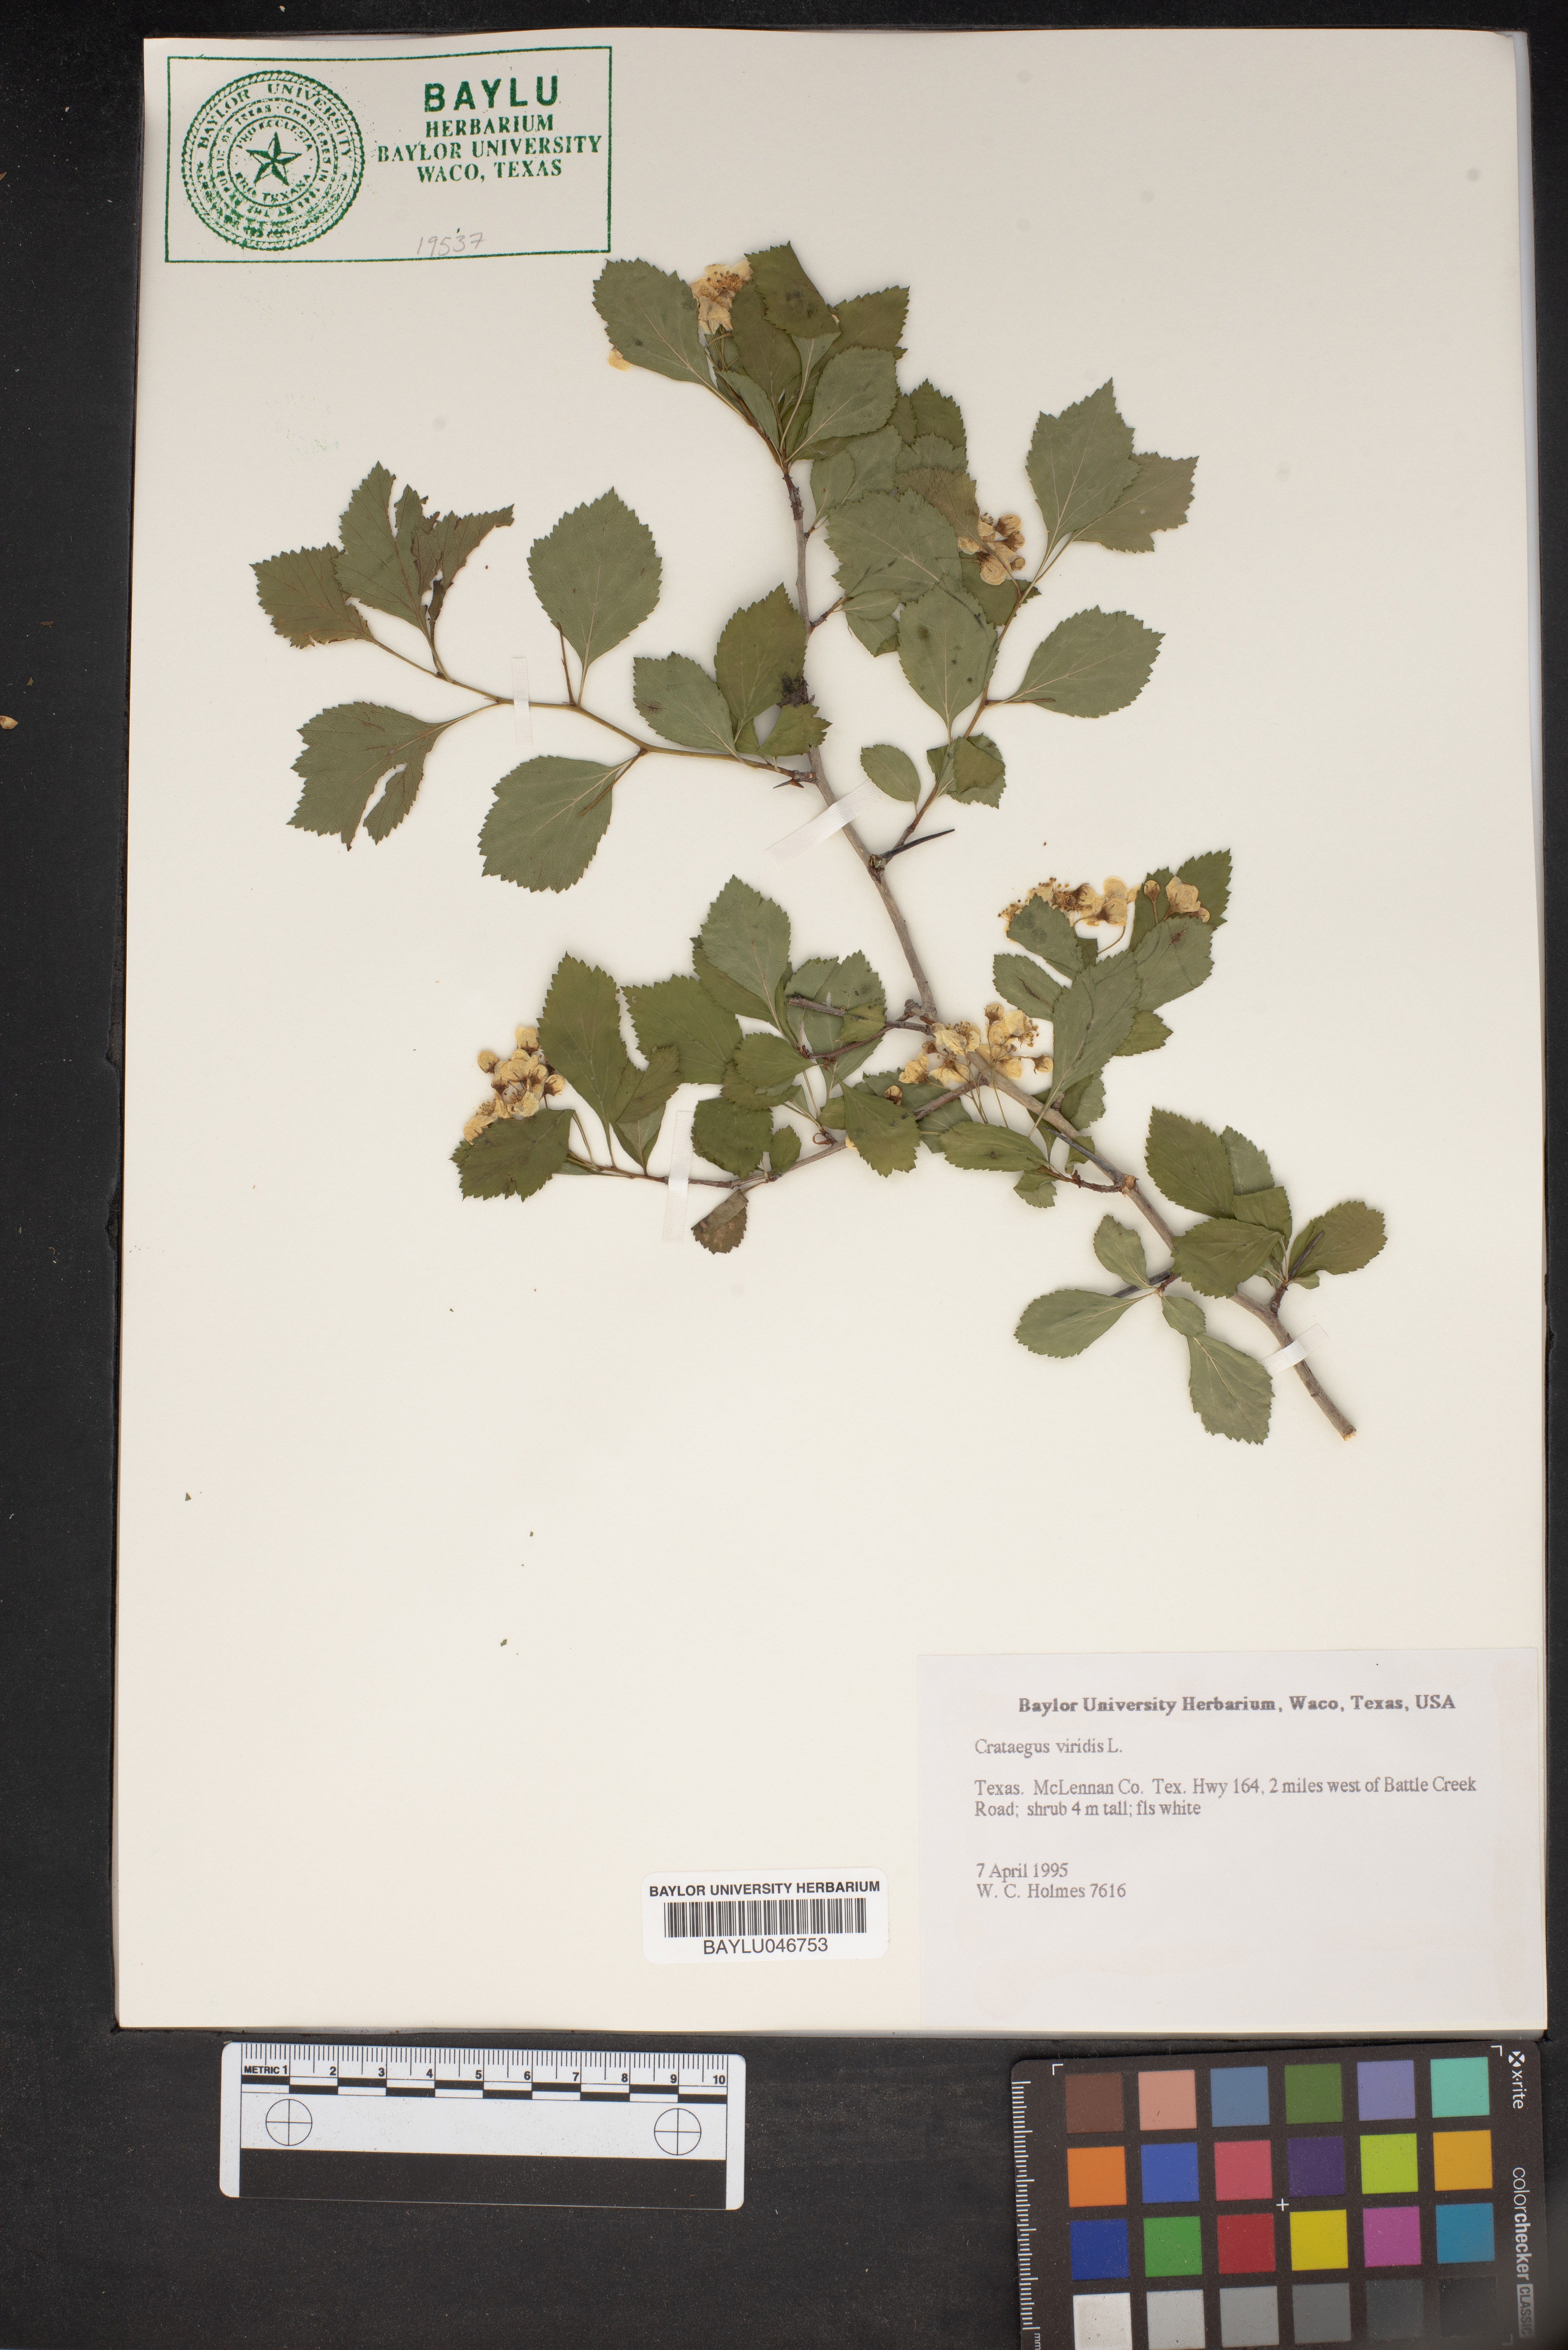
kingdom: Plantae
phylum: Tracheophyta
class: Magnoliopsida
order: Rosales
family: Rosaceae
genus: Crataegus
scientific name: Crataegus viridis
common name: Southernthorn
